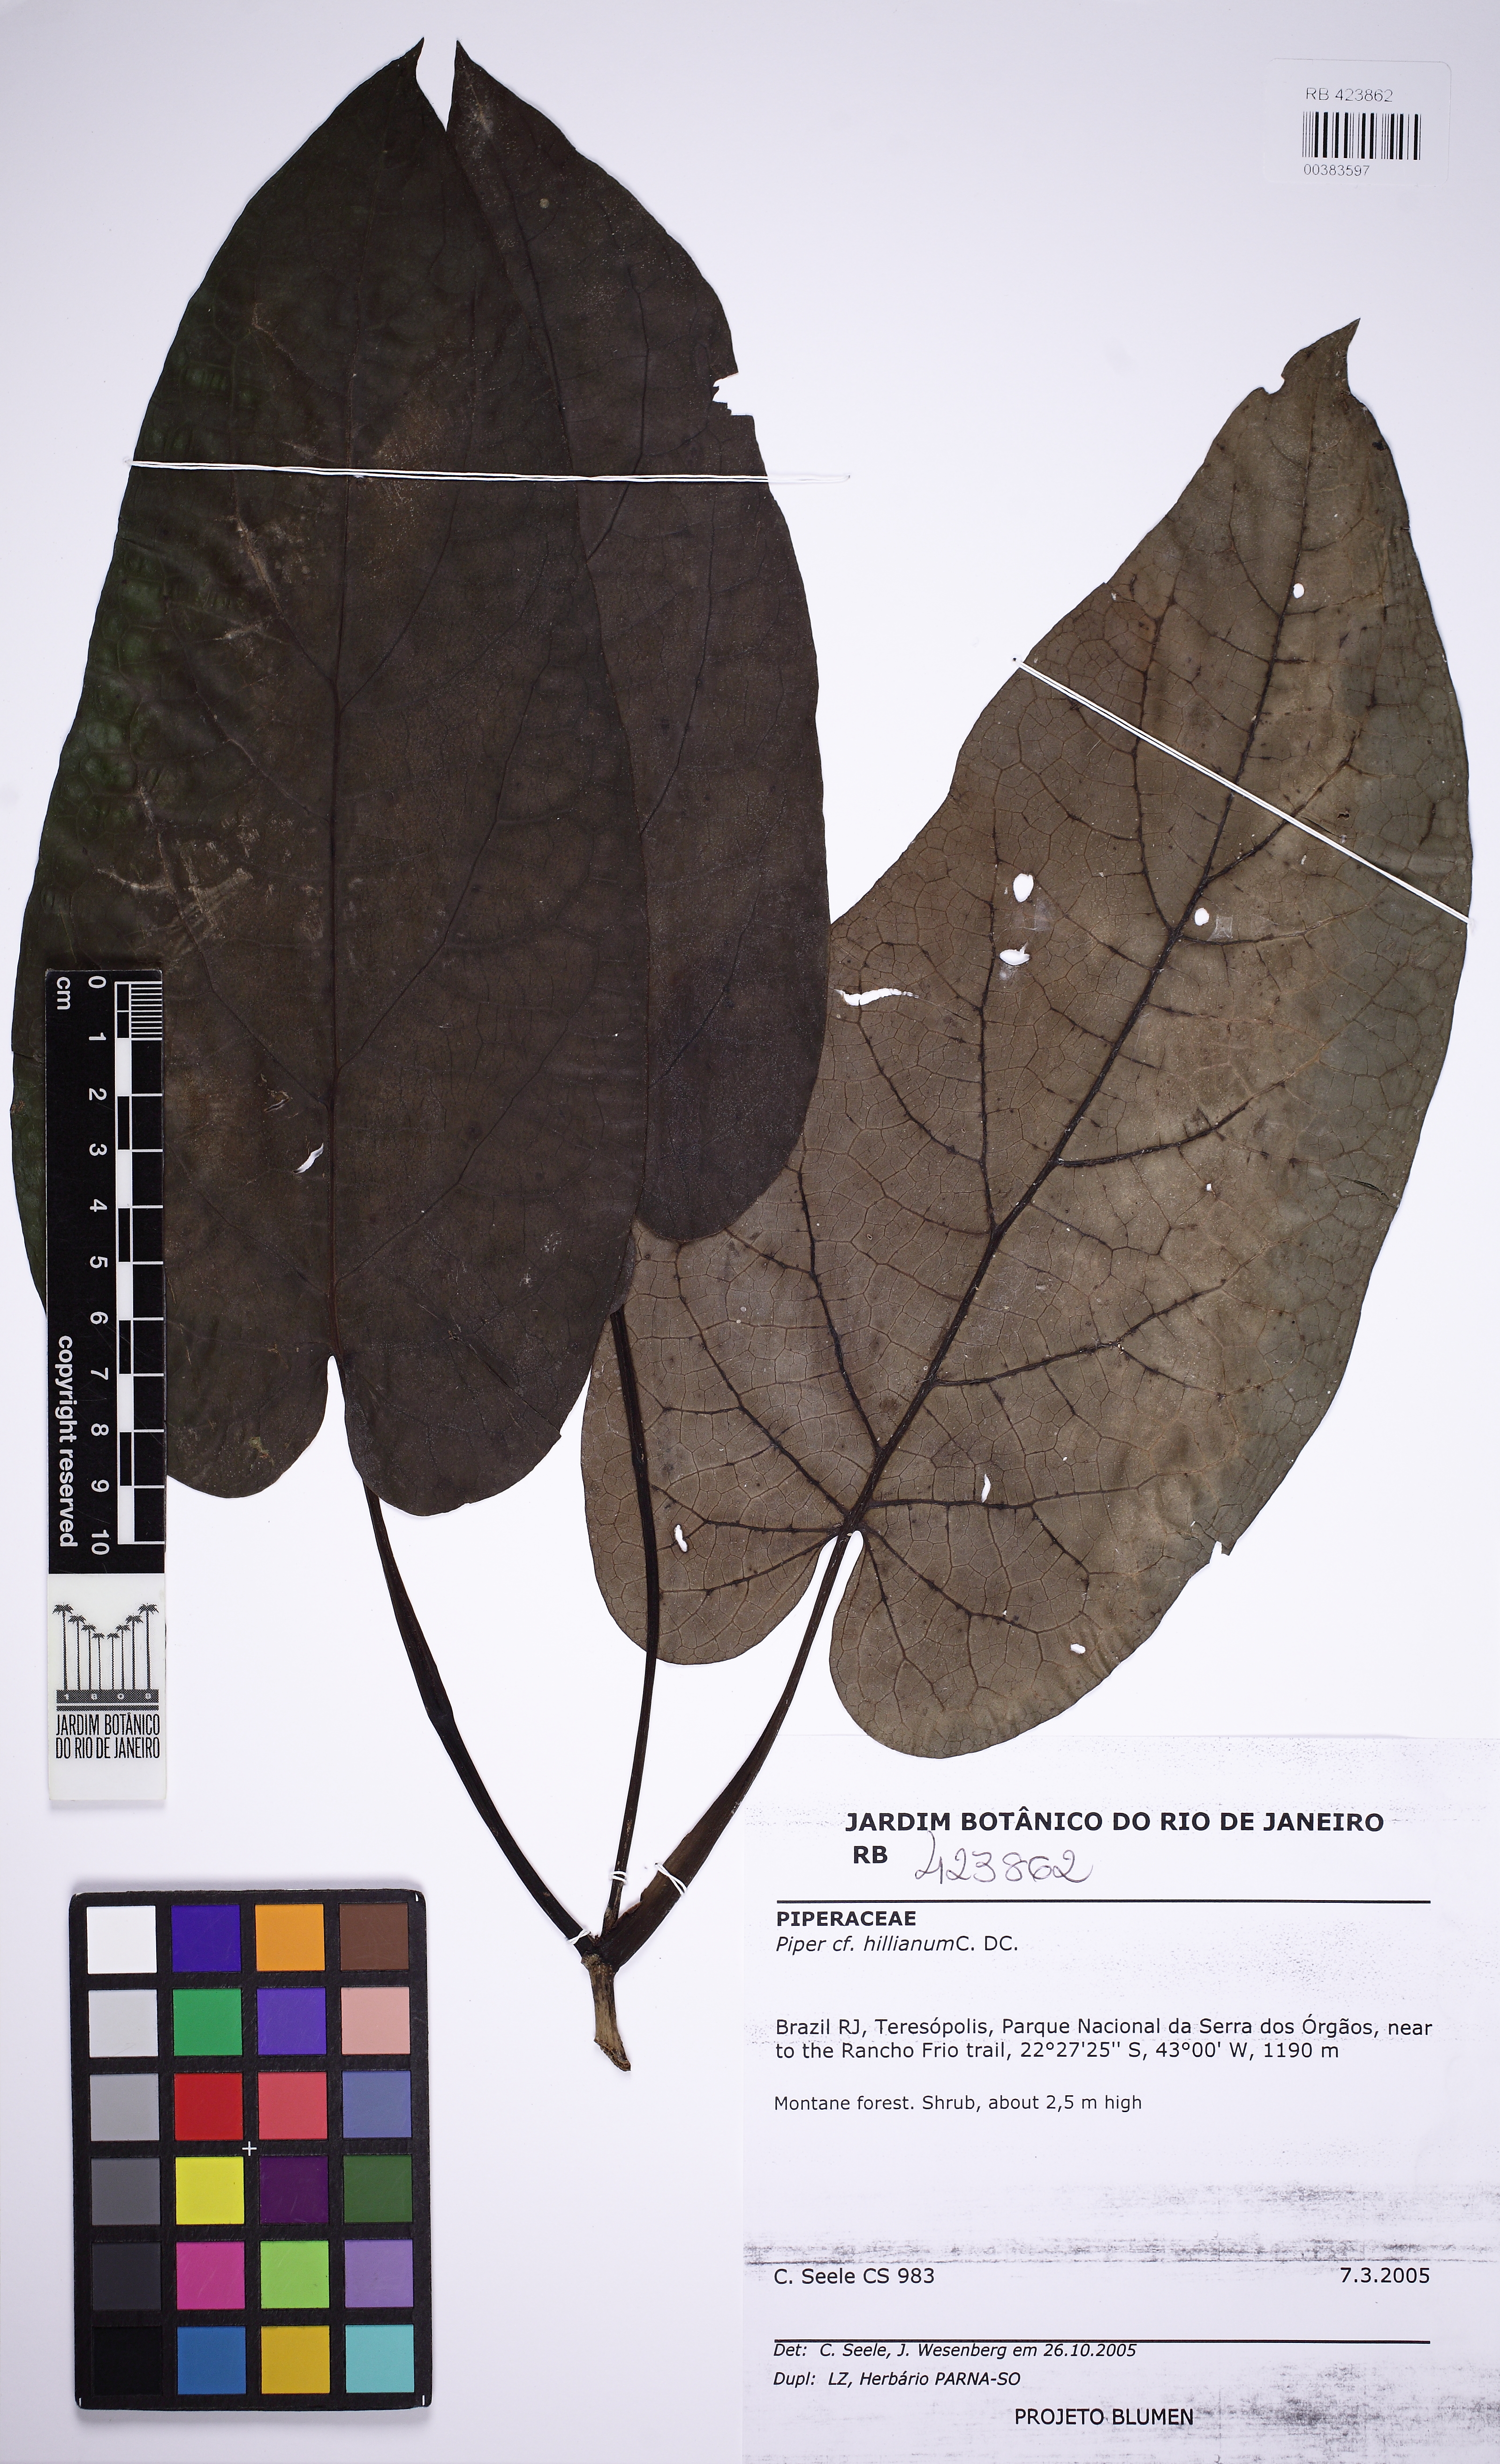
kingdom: Plantae
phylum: Tracheophyta
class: Magnoliopsida
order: Piperales
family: Piperaceae
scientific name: Piperaceae
